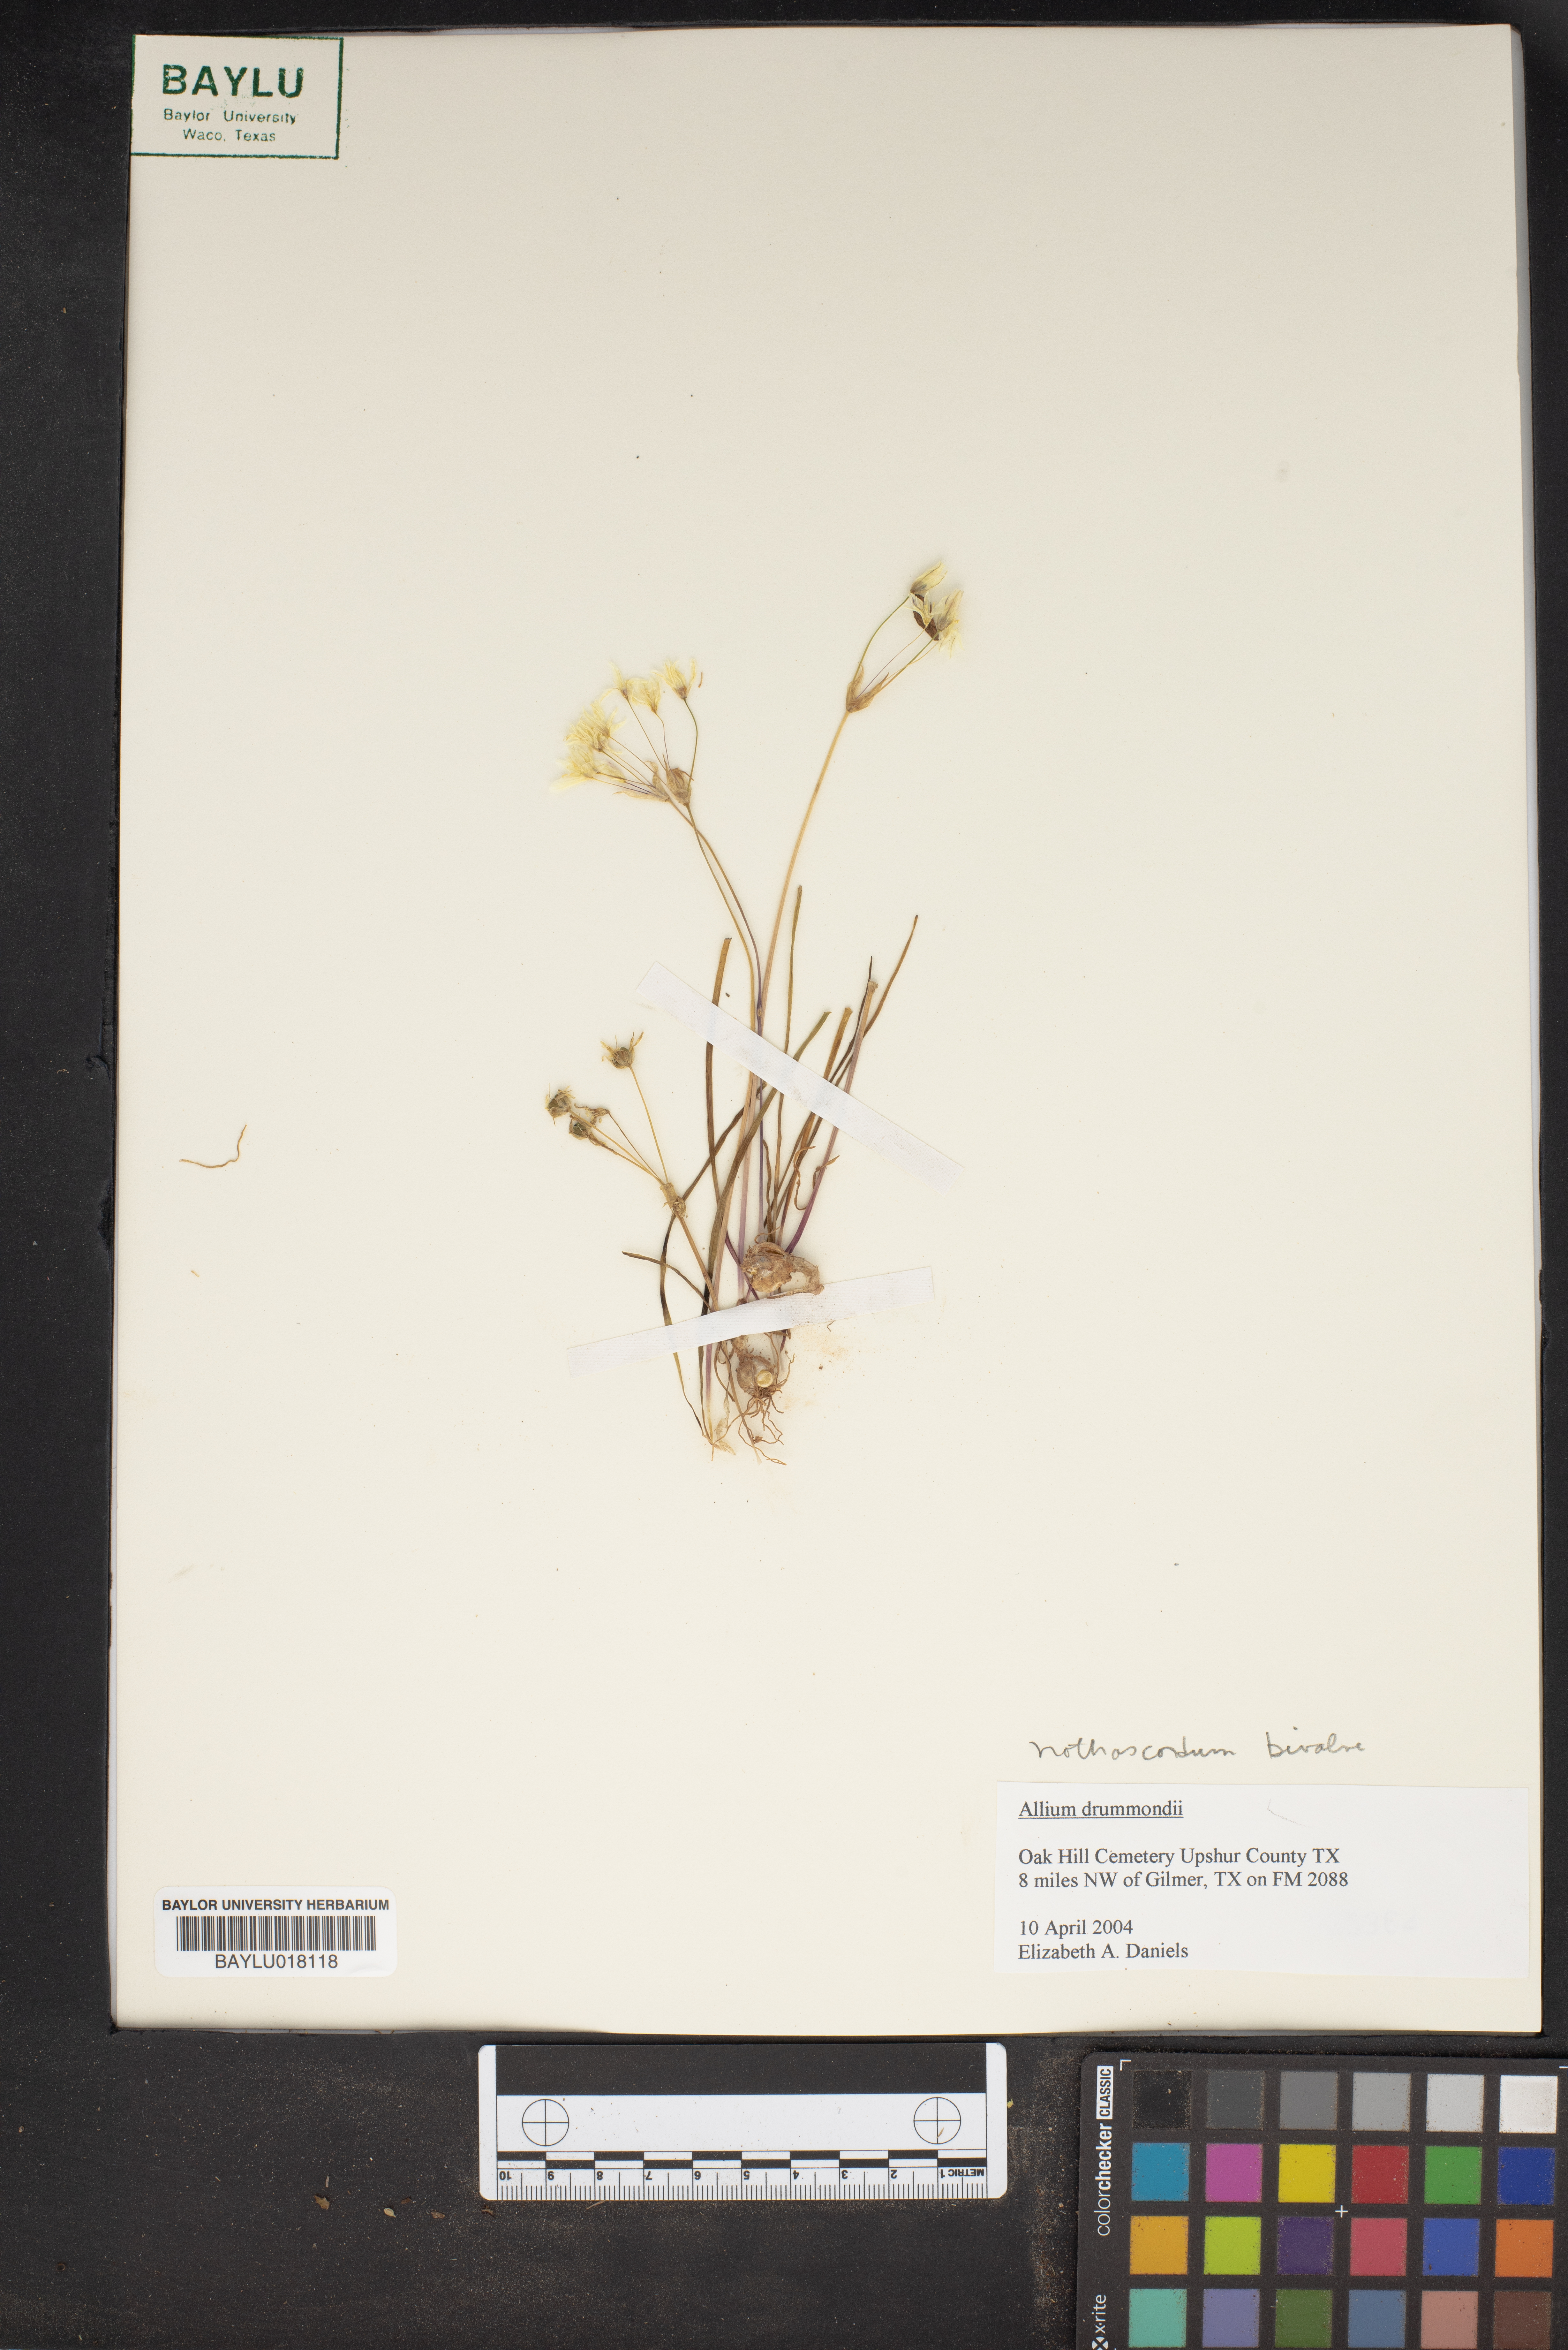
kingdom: Plantae
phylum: Tracheophyta
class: Liliopsida
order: Asparagales
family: Amaryllidaceae
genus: Allium
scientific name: Allium drummondii
